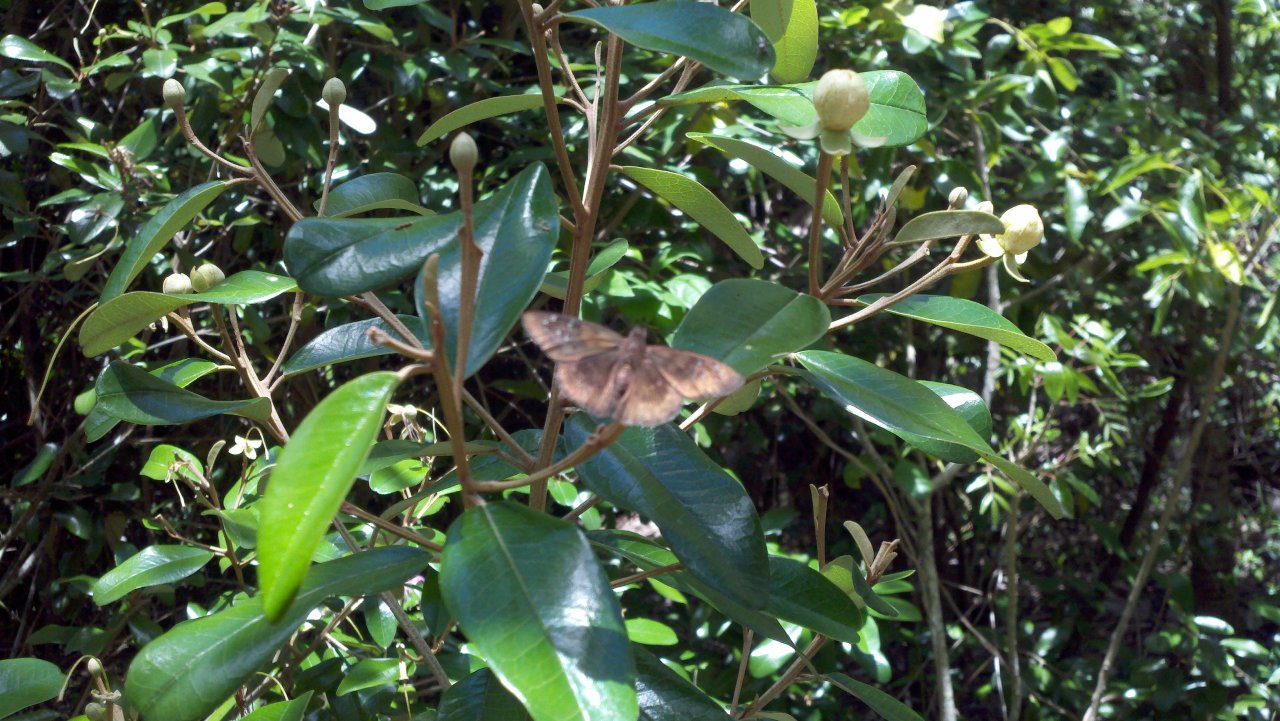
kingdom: Animalia
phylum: Arthropoda
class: Insecta
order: Lepidoptera
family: Hesperiidae
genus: Ephyriades
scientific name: Ephyriades brunnea
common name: Florida Duskywing
